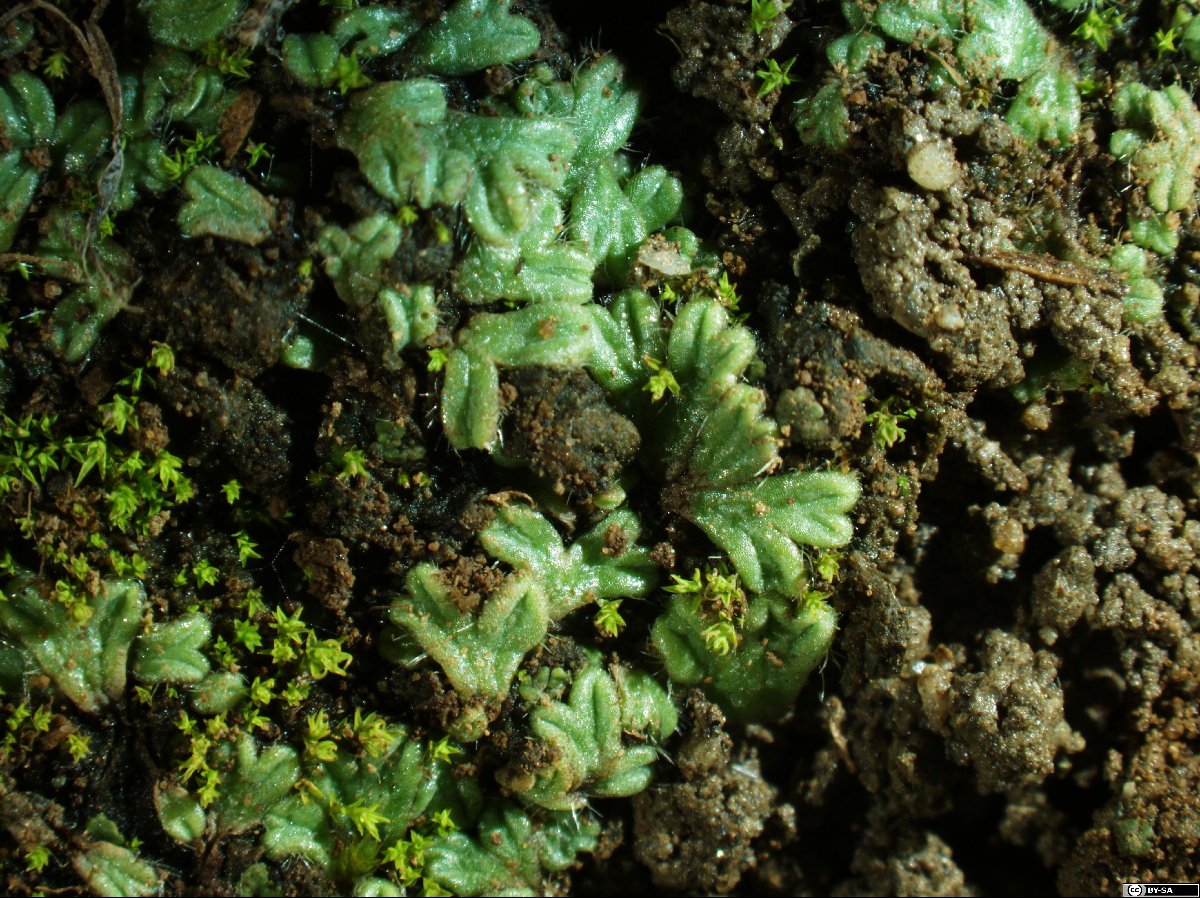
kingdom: Plantae
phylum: Marchantiophyta
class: Marchantiopsida
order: Marchantiales
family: Ricciaceae
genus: Riccia
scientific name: Riccia ciliata
